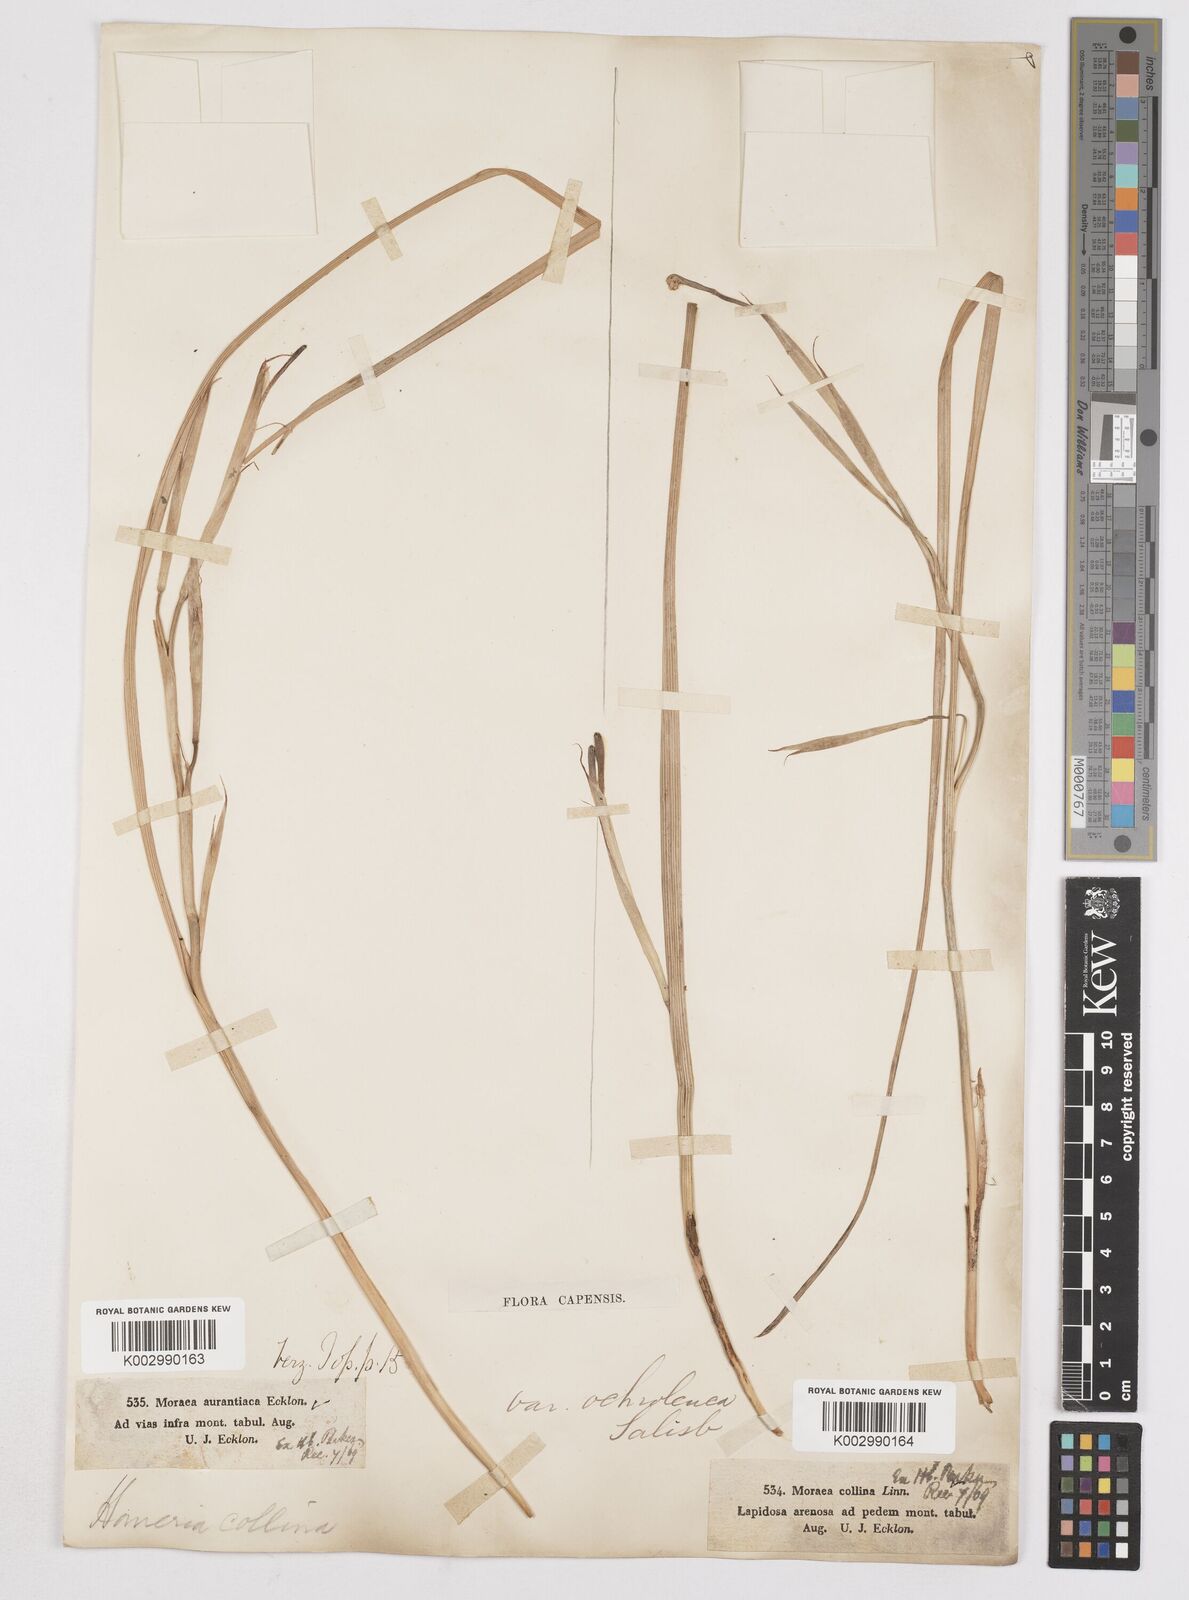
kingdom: Plantae
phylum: Tracheophyta
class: Liliopsida
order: Asparagales
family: Iridaceae
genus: Moraea
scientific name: Moraea collina
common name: Cape-tulip
